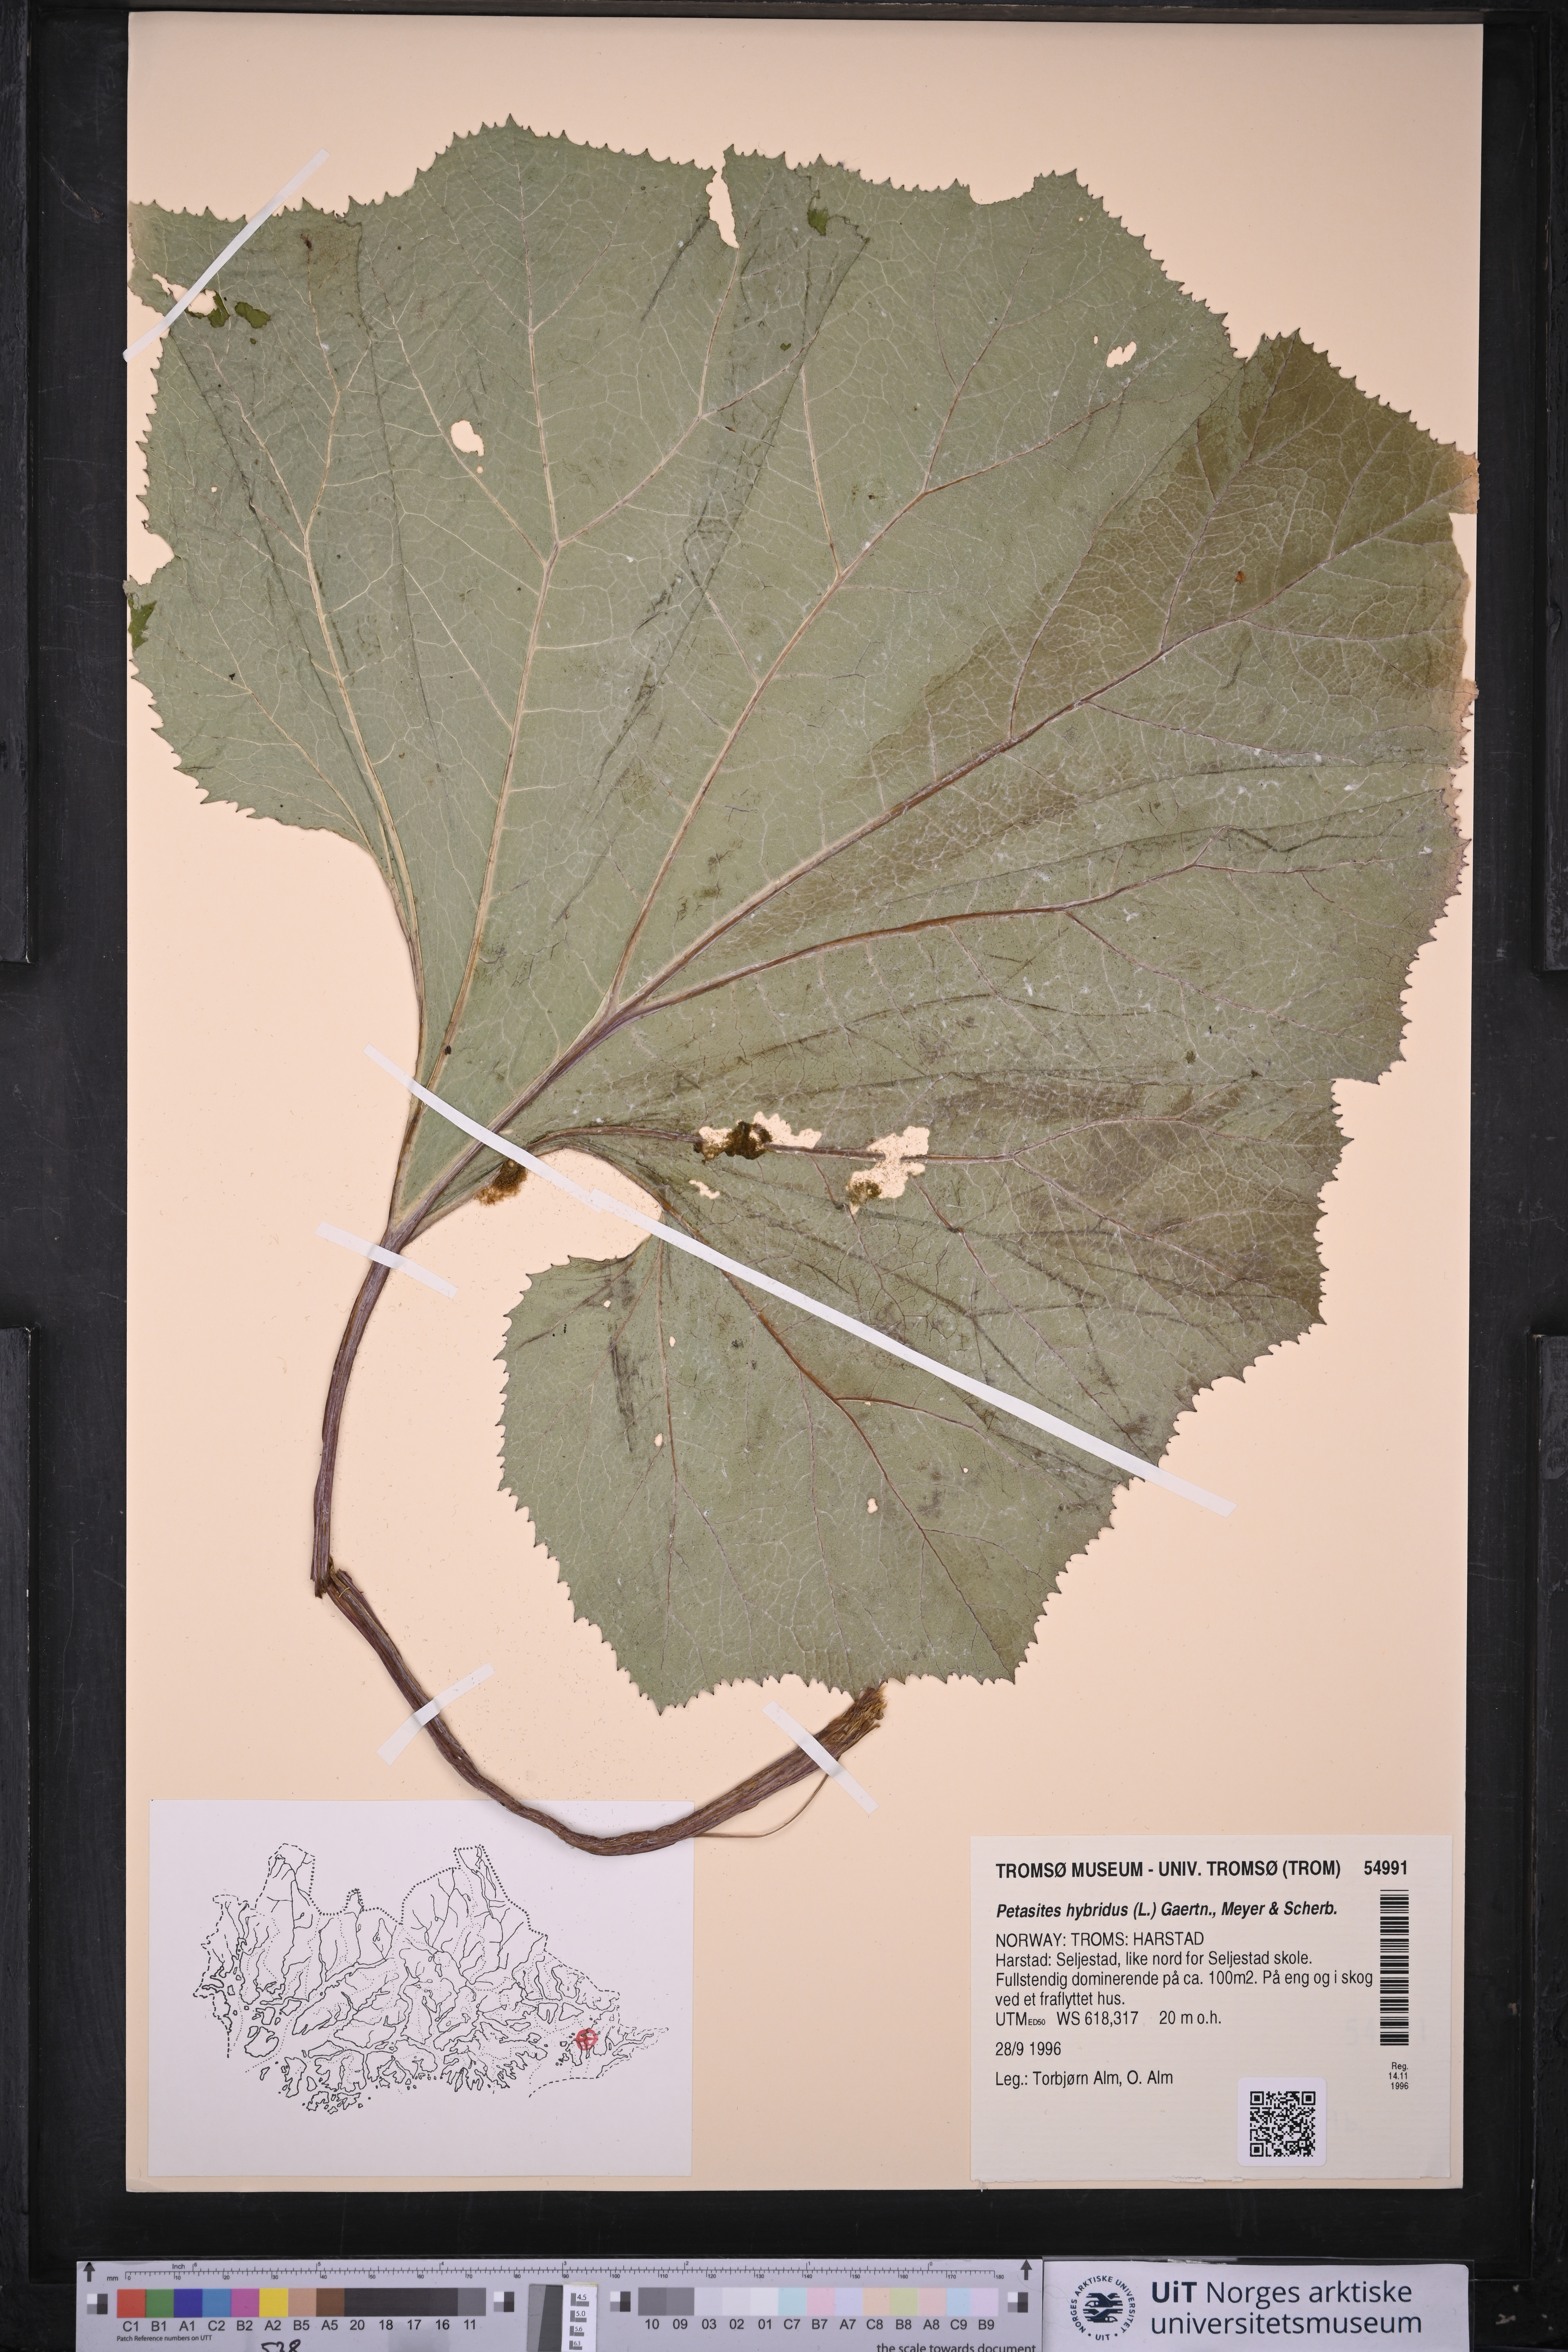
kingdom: Plantae
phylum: Tracheophyta
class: Magnoliopsida
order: Asterales
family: Asteraceae
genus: Petasites
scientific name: Petasites hybridus
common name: Butterbur
